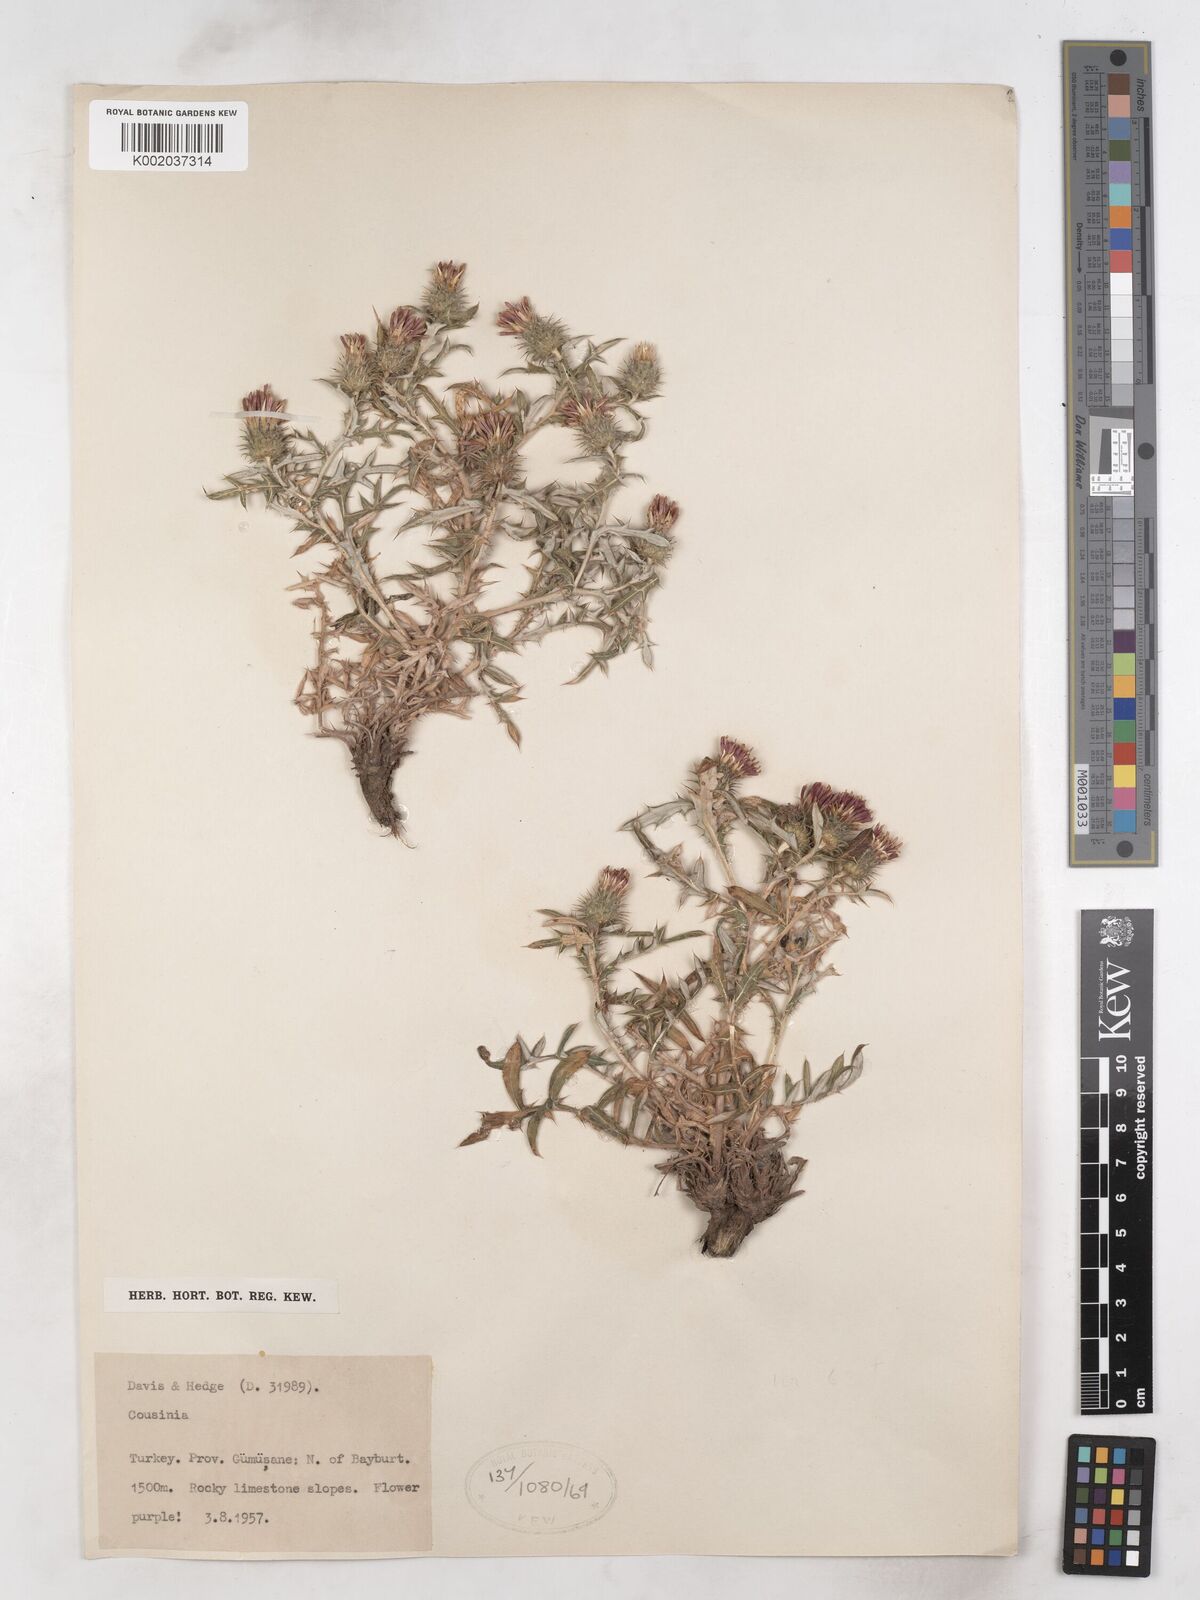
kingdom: Plantae
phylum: Tracheophyta
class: Magnoliopsida
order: Asterales
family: Asteraceae
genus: Cousinia
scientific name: Cousinia brachyptera
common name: Short-winged cousinia
